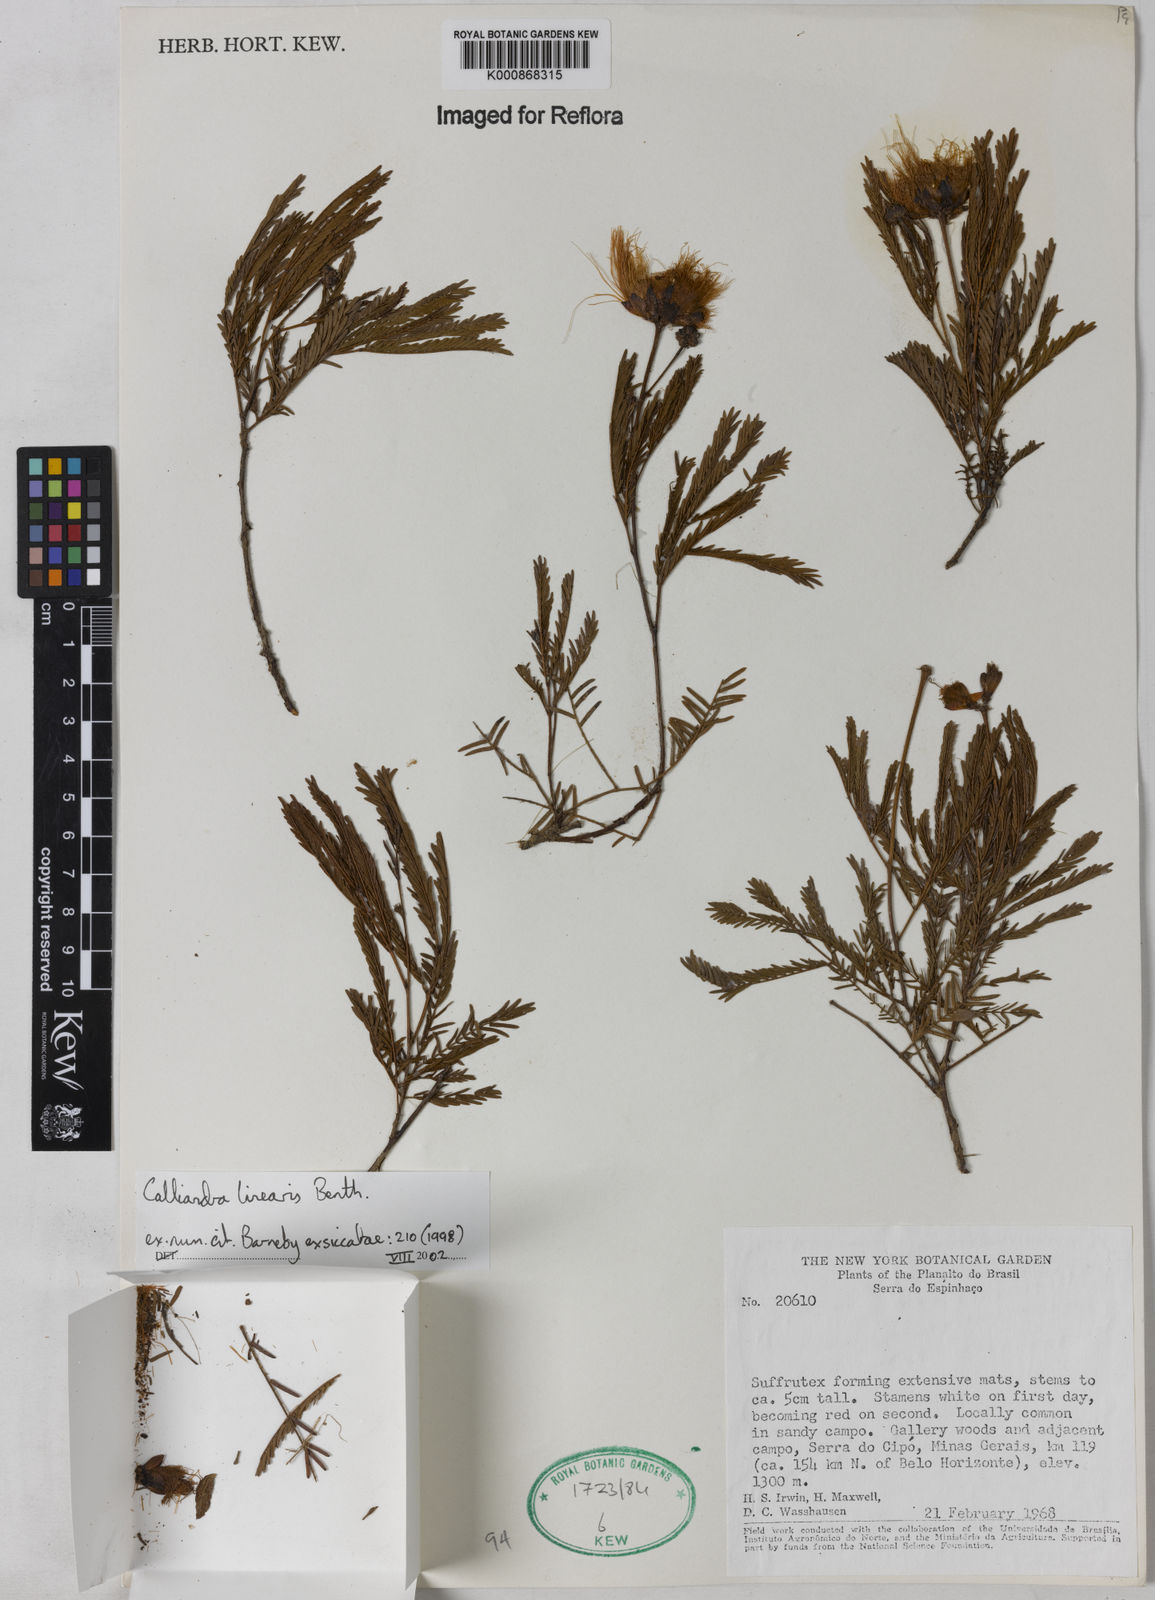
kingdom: Plantae
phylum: Tracheophyta
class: Magnoliopsida
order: Fabales
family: Fabaceae
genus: Calliandra
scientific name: Calliandra linearis
